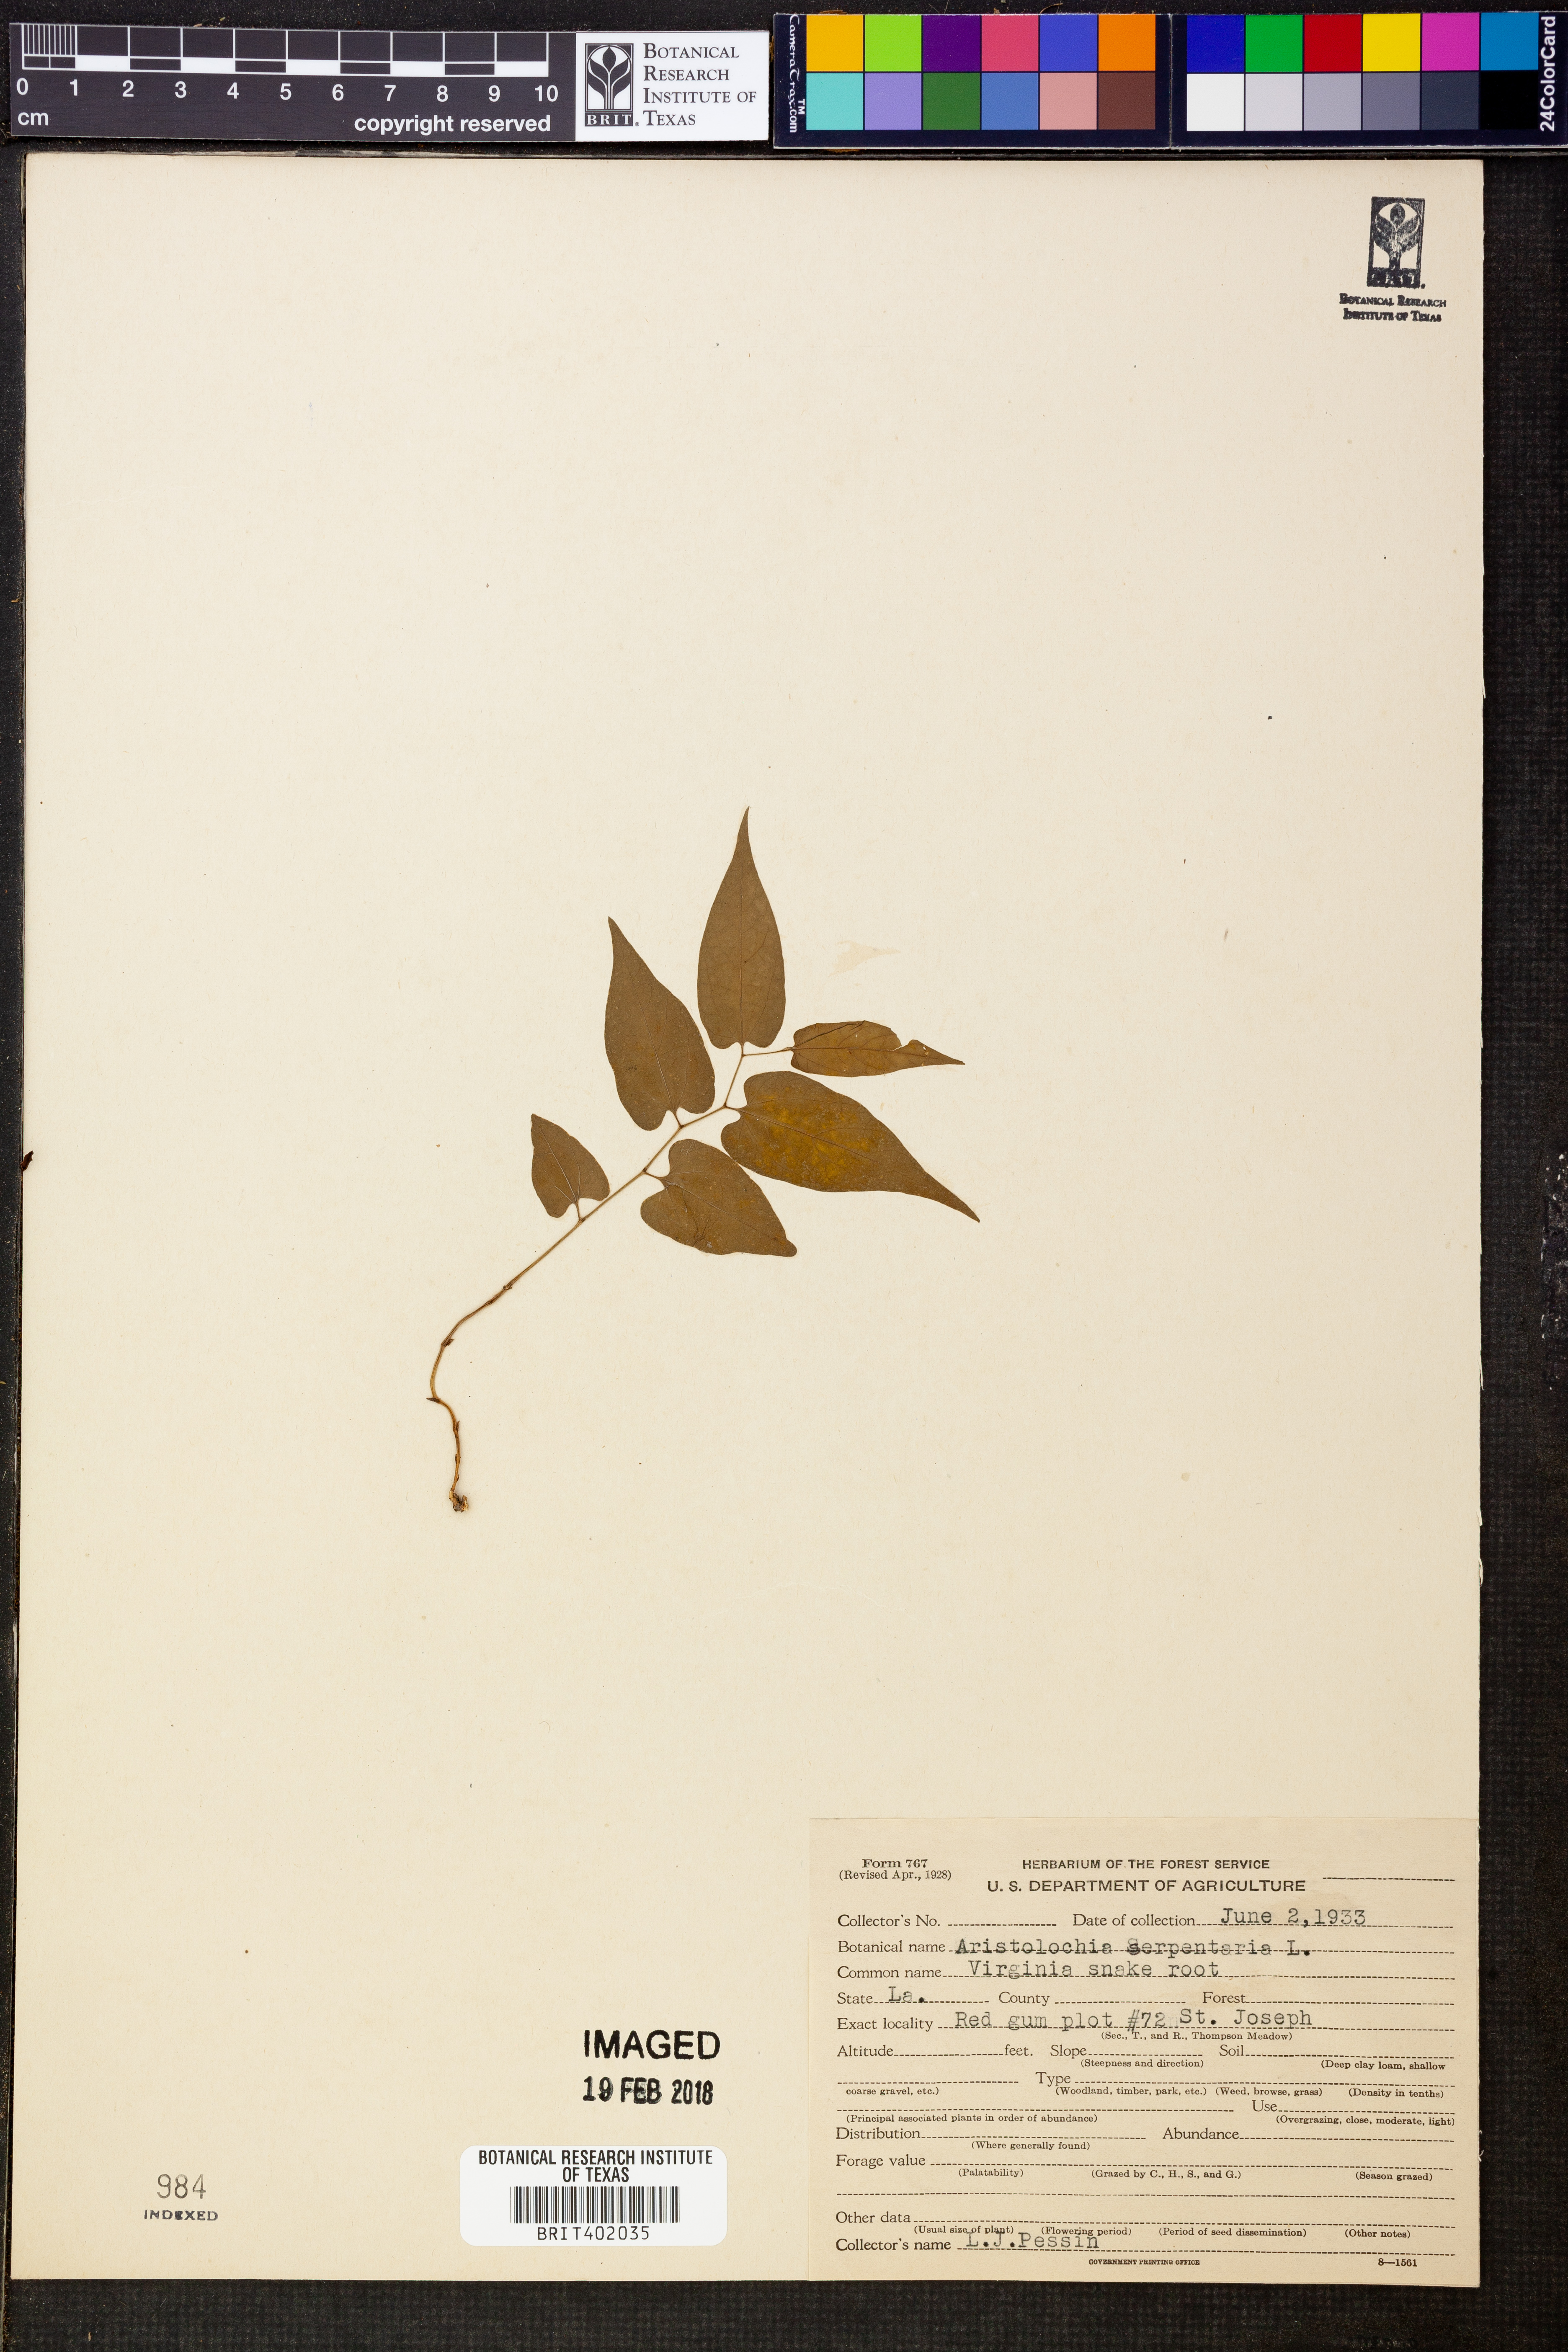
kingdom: Plantae
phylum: Tracheophyta
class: Magnoliopsida
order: Piperales
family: Aristolochiaceae
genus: Endodeca
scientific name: Endodeca serpentaria
